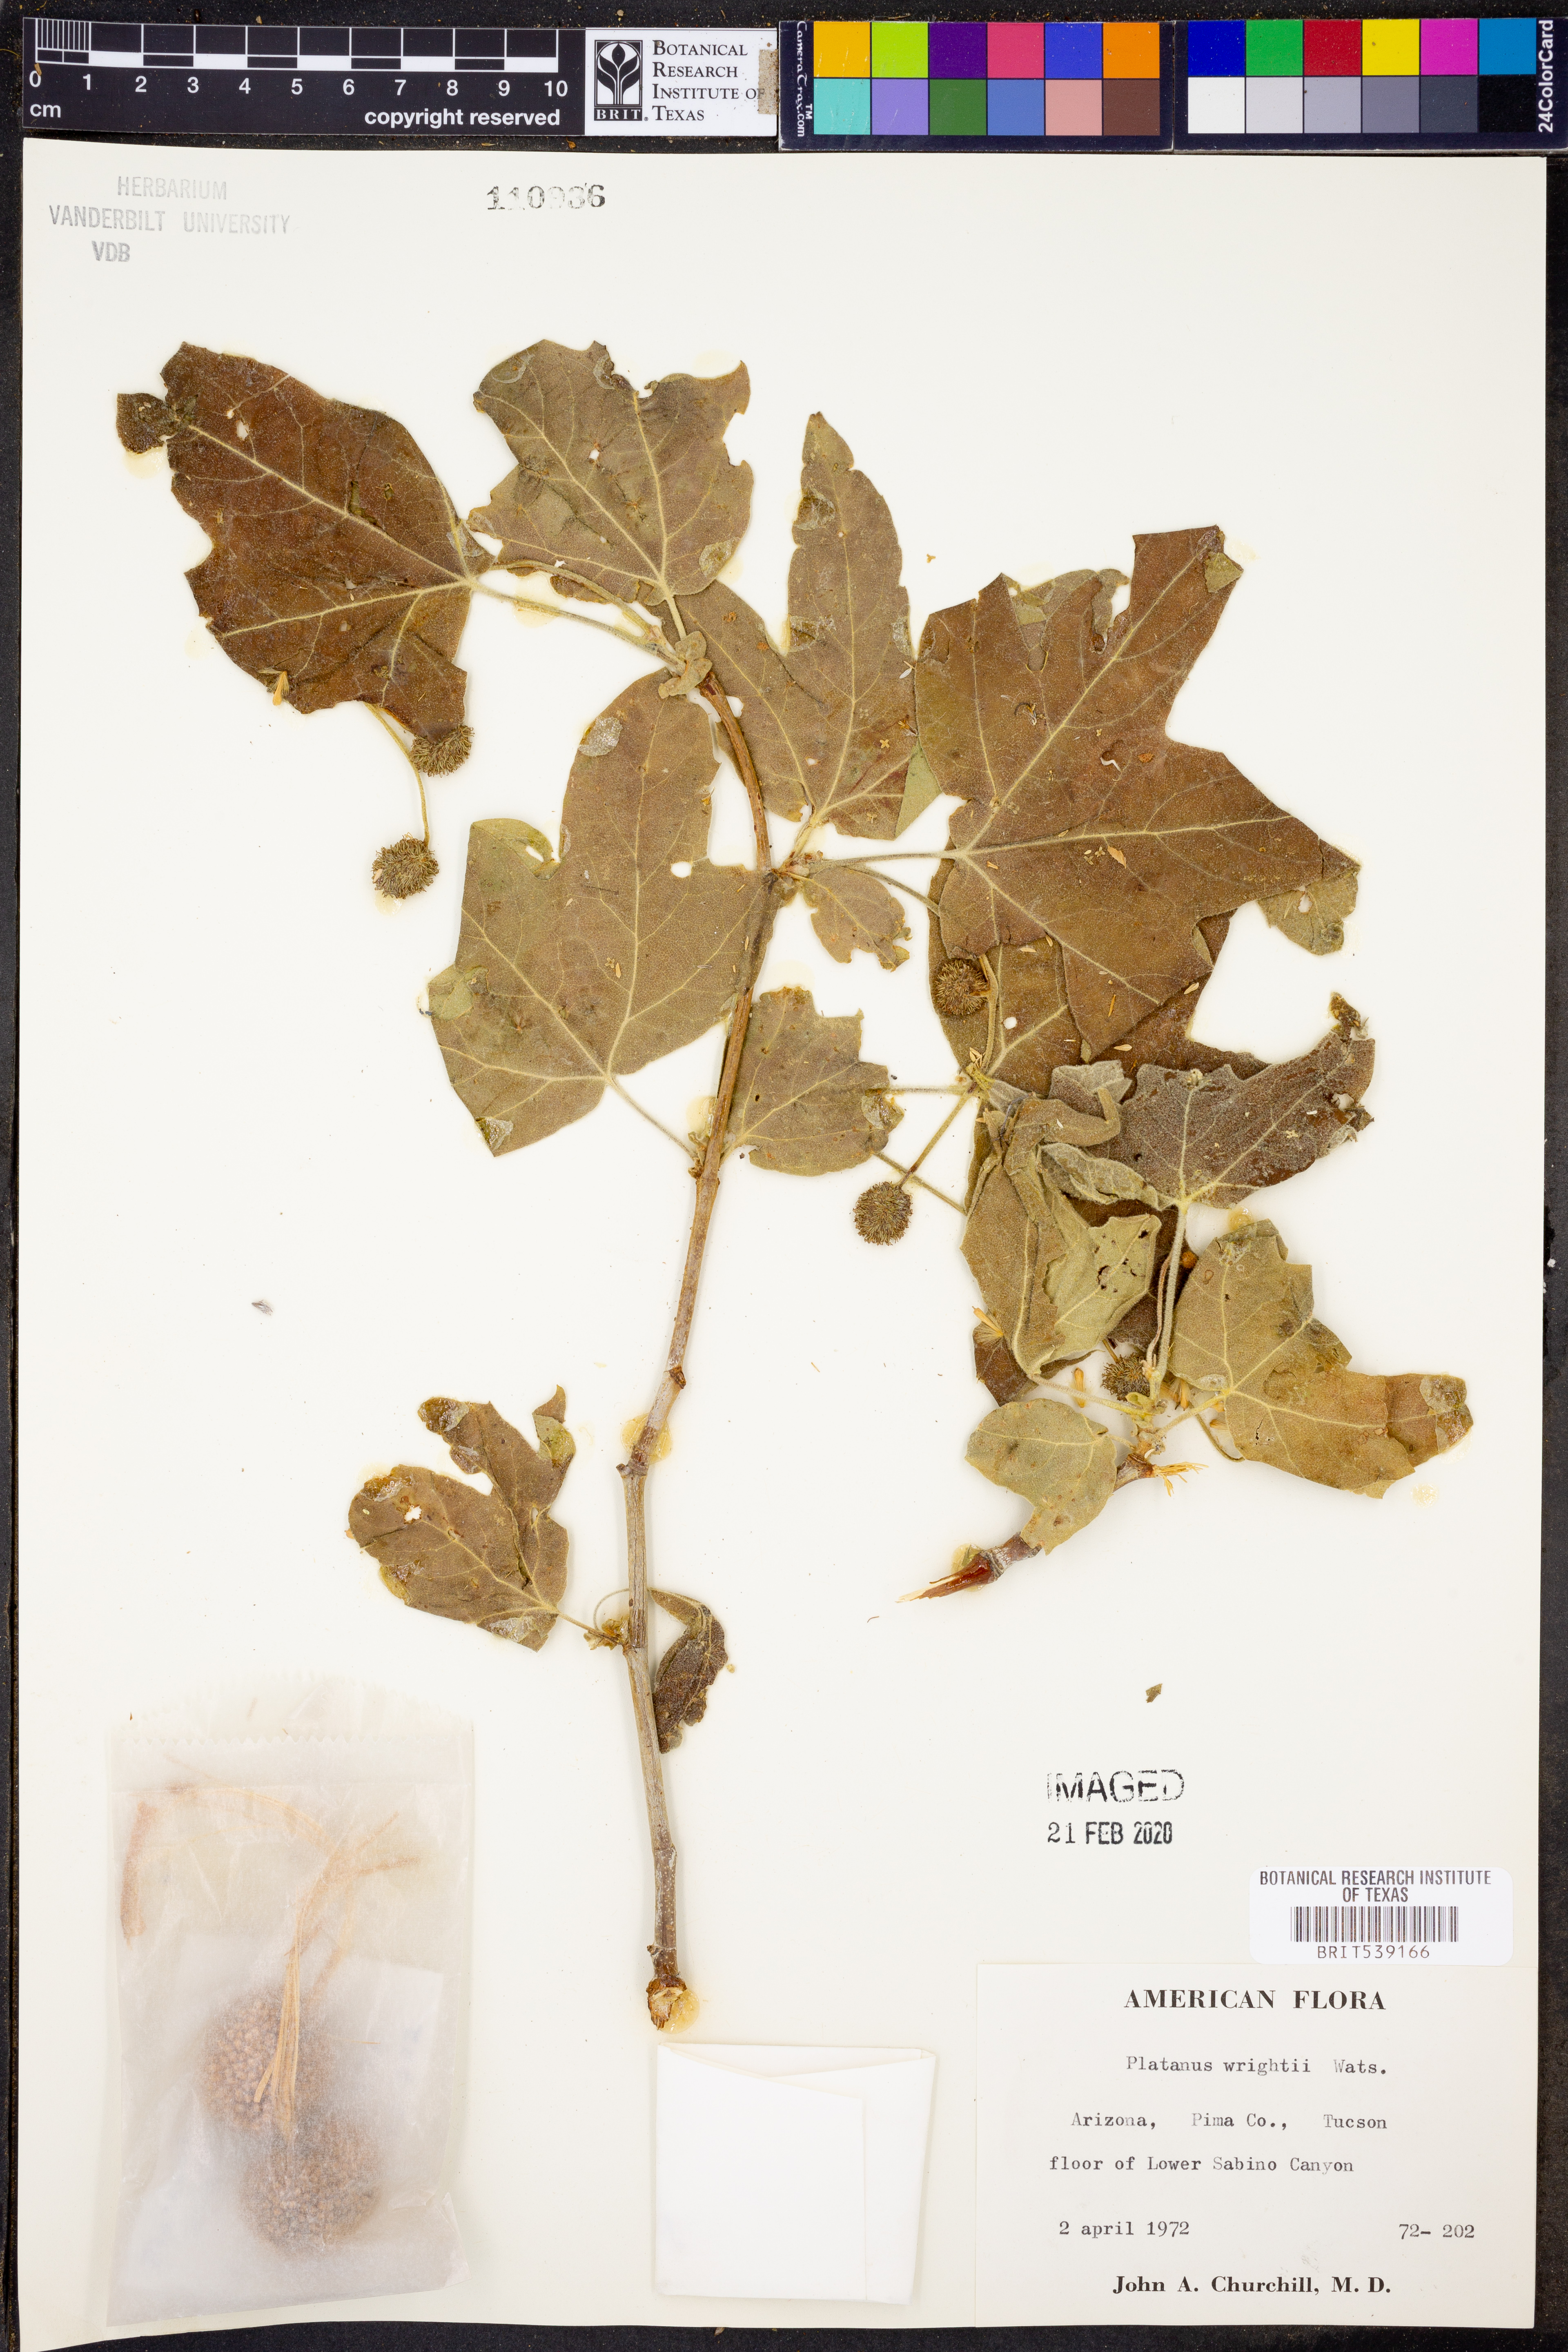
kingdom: Plantae
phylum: Tracheophyta
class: Magnoliopsida
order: Proteales
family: Platanaceae
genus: Platanus
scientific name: Platanus wrightii
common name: Arizona sycamore
